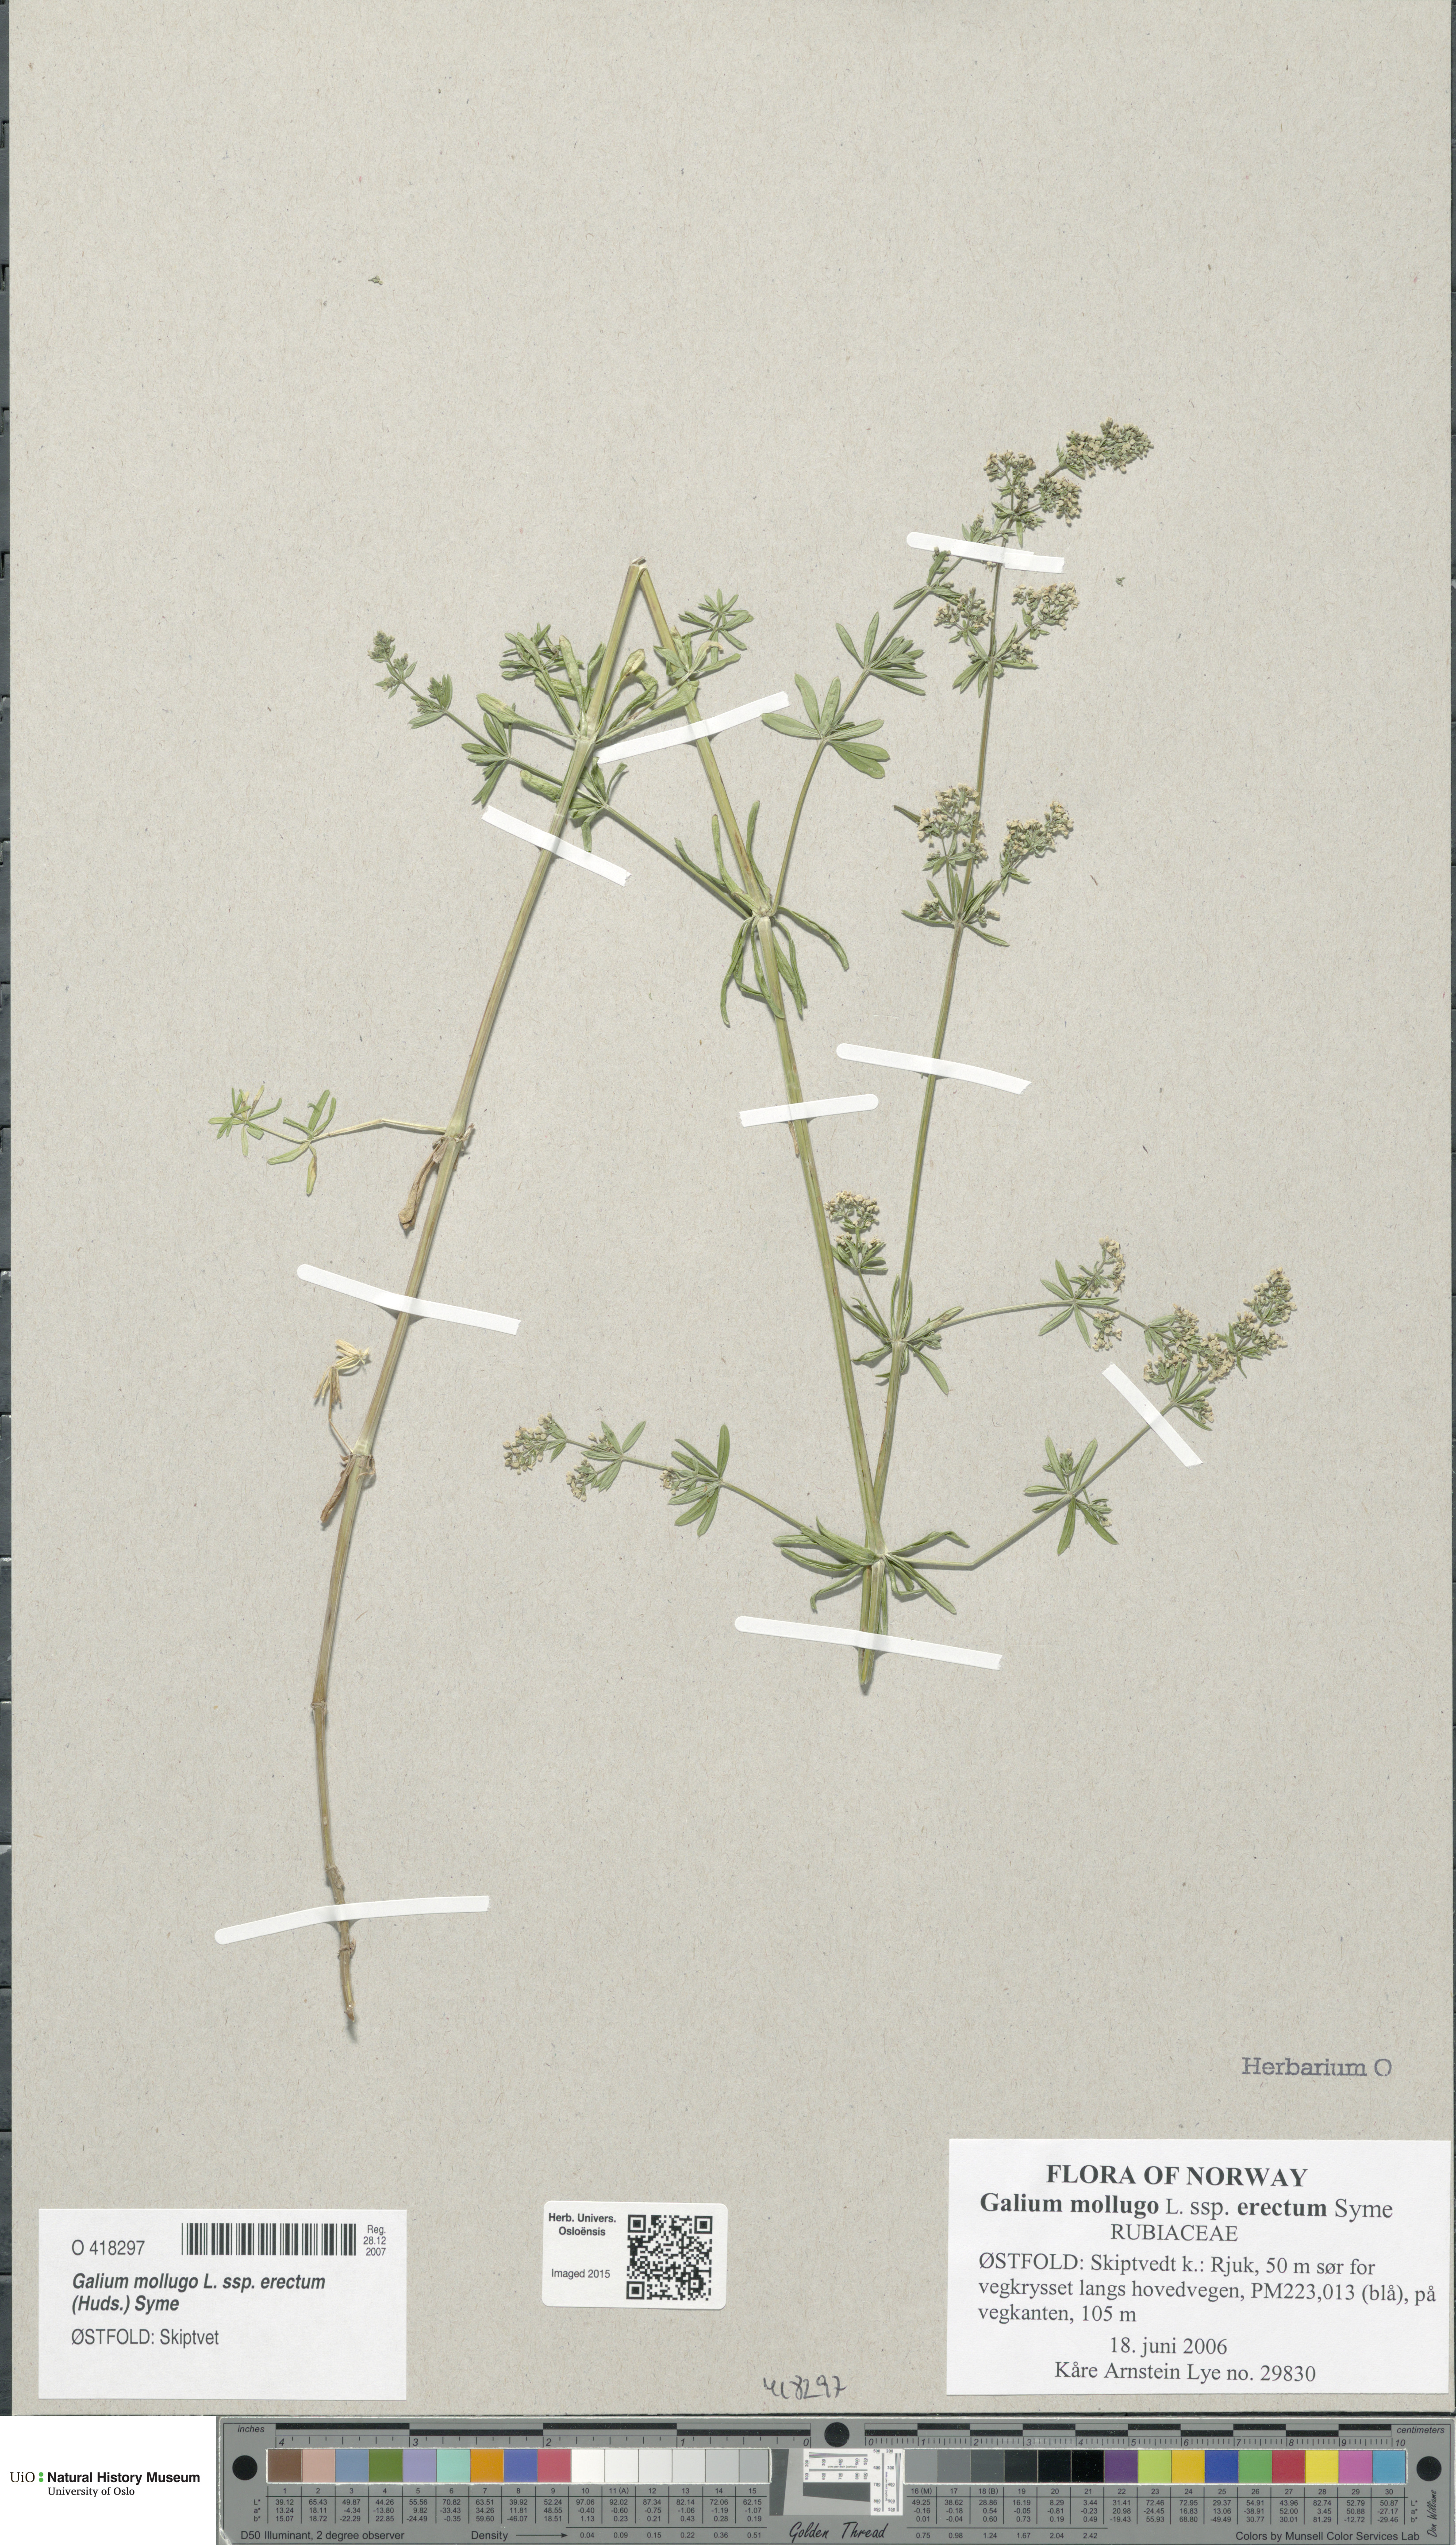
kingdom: Plantae
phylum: Tracheophyta
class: Magnoliopsida
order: Gentianales
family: Rubiaceae
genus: Galium
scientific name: Galium album
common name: White bedstraw
